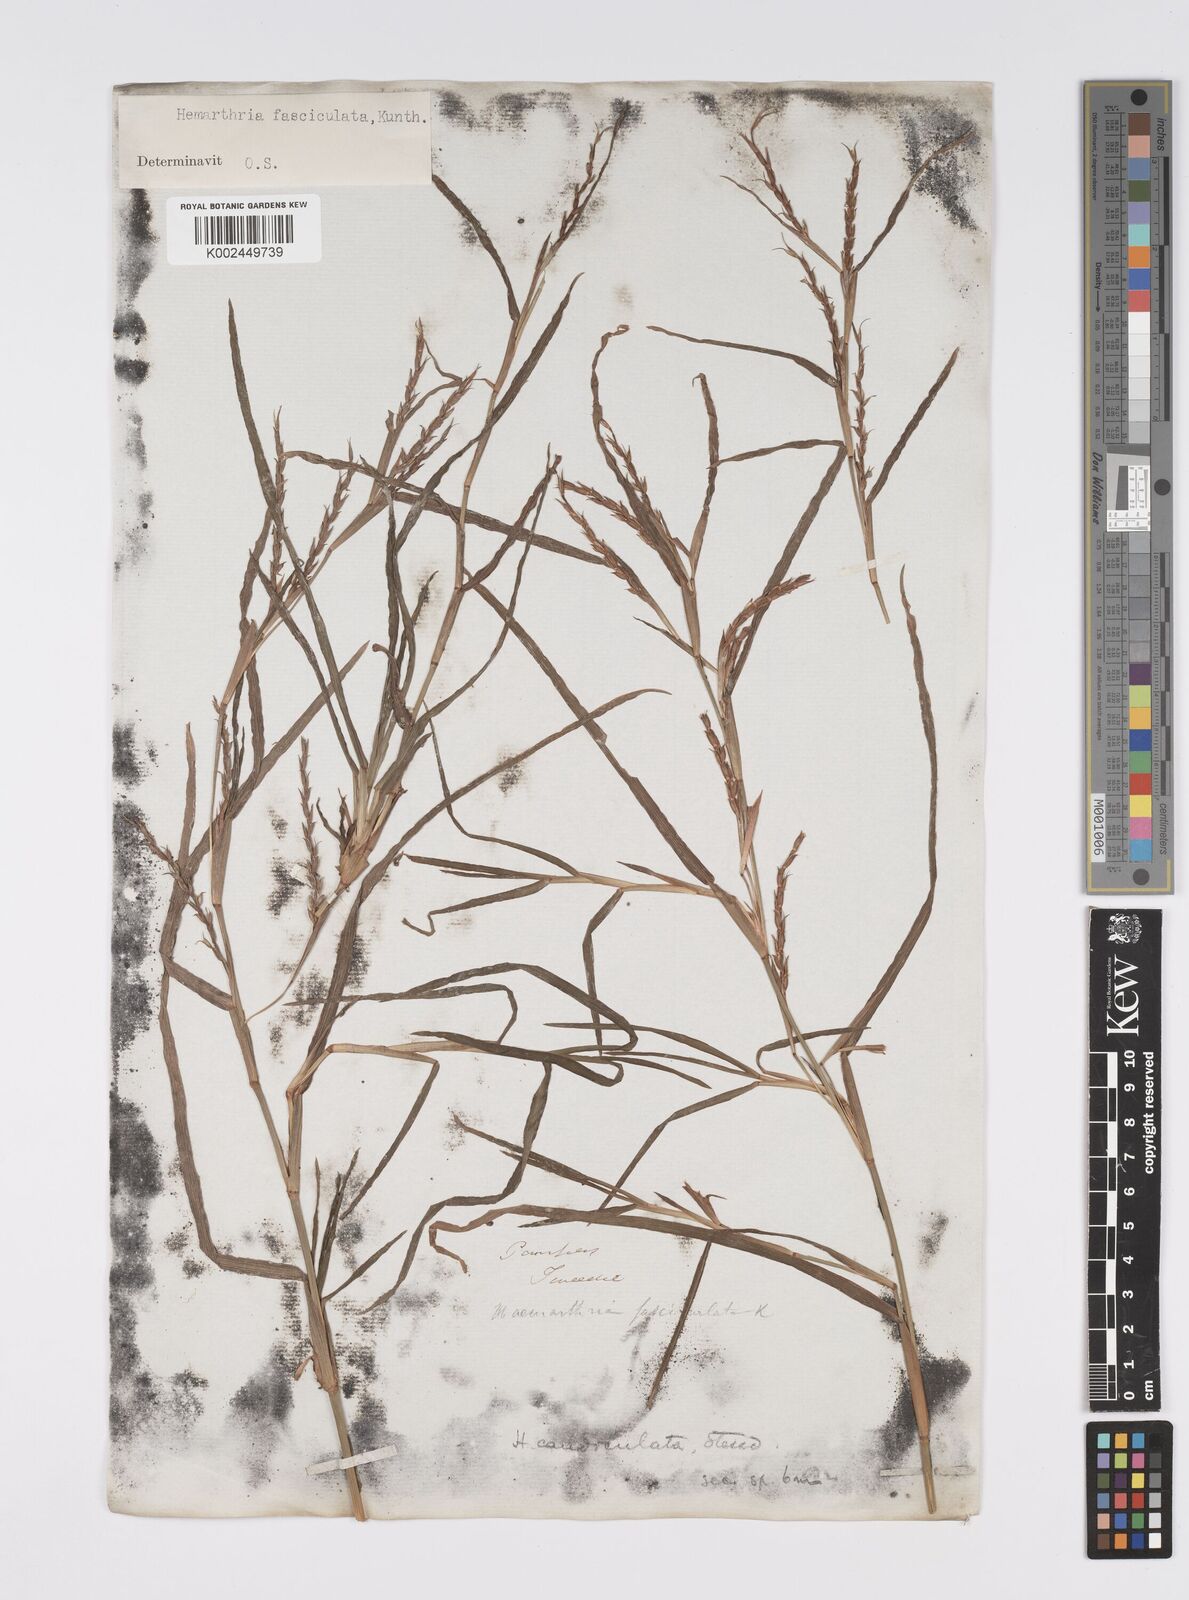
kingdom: Plantae
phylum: Tracheophyta
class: Liliopsida
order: Poales
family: Poaceae
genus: Hemarthria
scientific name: Hemarthria altissima
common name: African jointgrass
